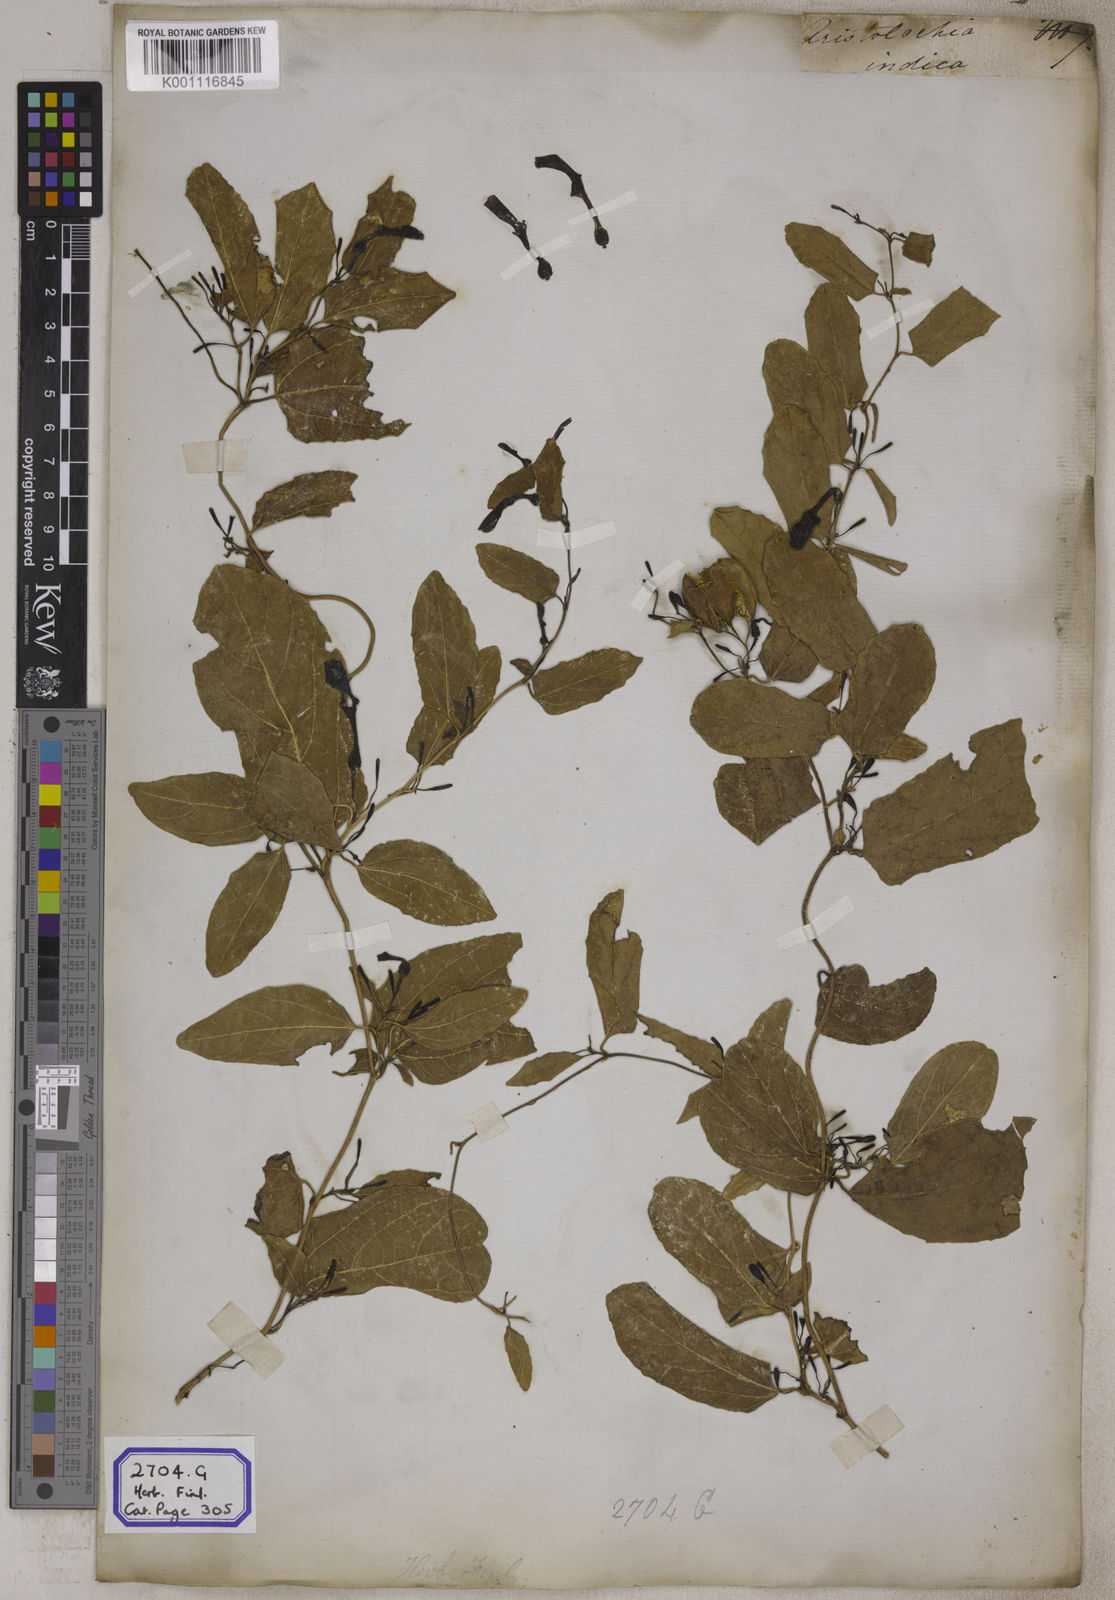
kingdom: Plantae
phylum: Tracheophyta
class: Magnoliopsida
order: Piperales
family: Aristolochiaceae
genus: Aristolochia
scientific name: Aristolochia indica
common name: Indian birthwort
